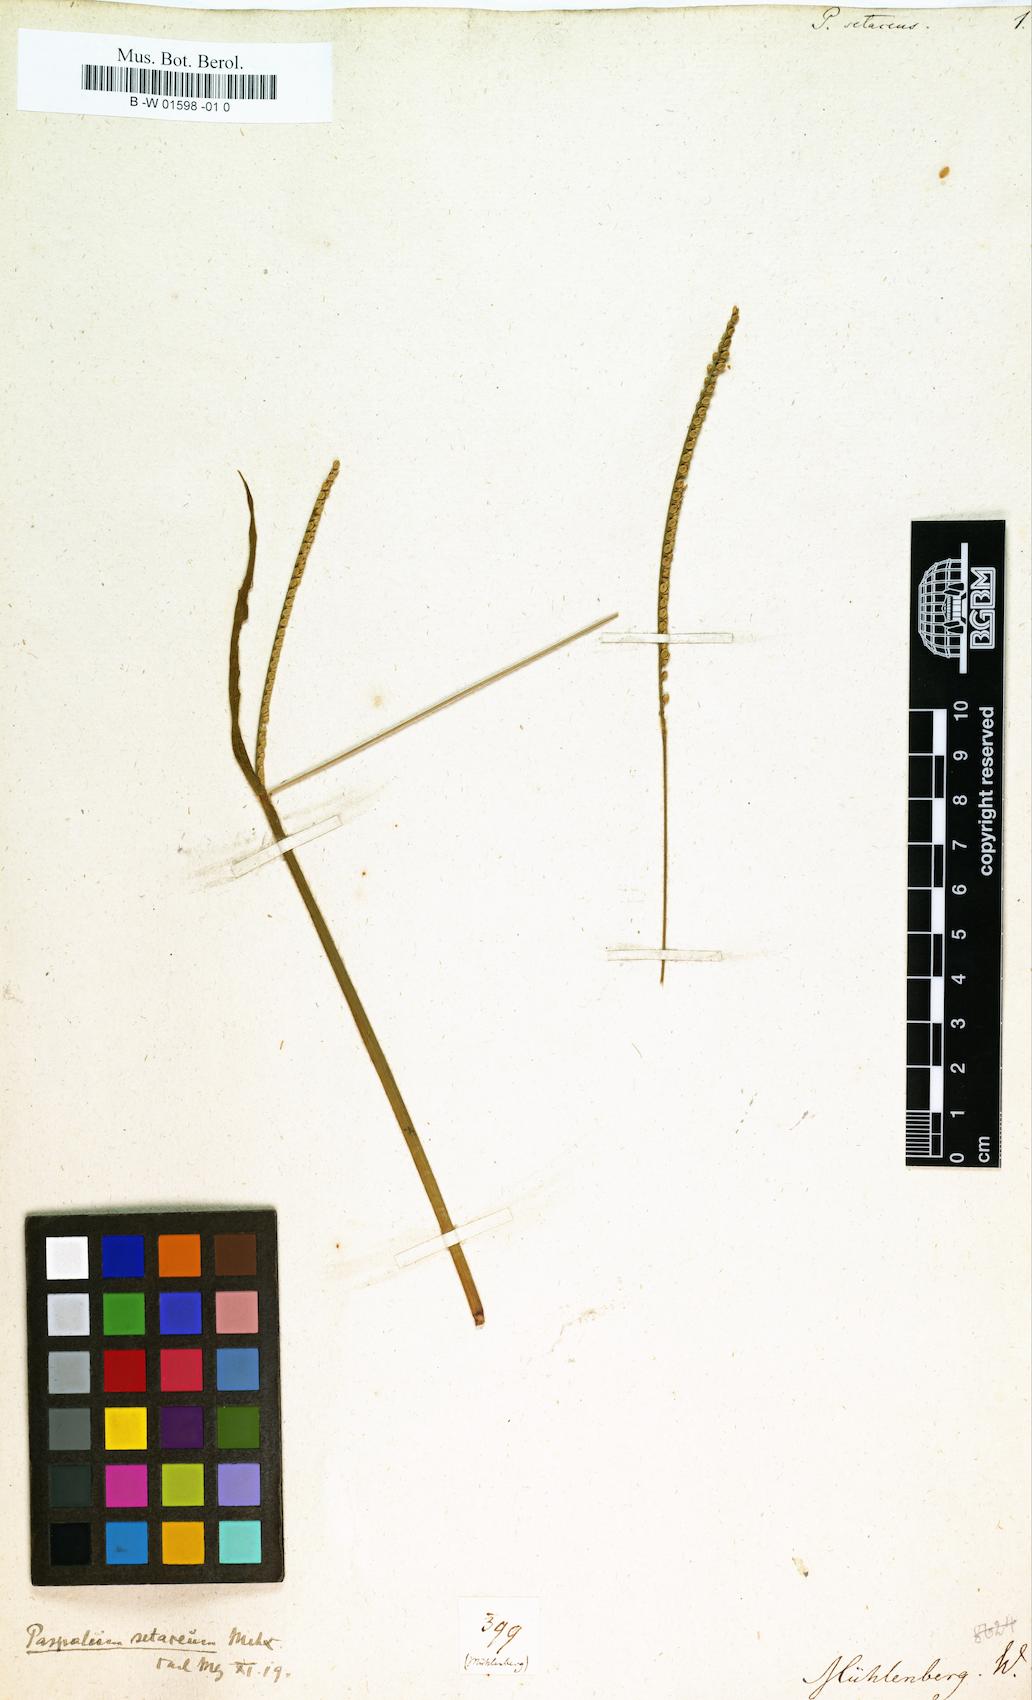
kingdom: Plantae
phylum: Tracheophyta
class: Liliopsida
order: Poales
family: Poaceae
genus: Paspalus
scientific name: Paspalus
